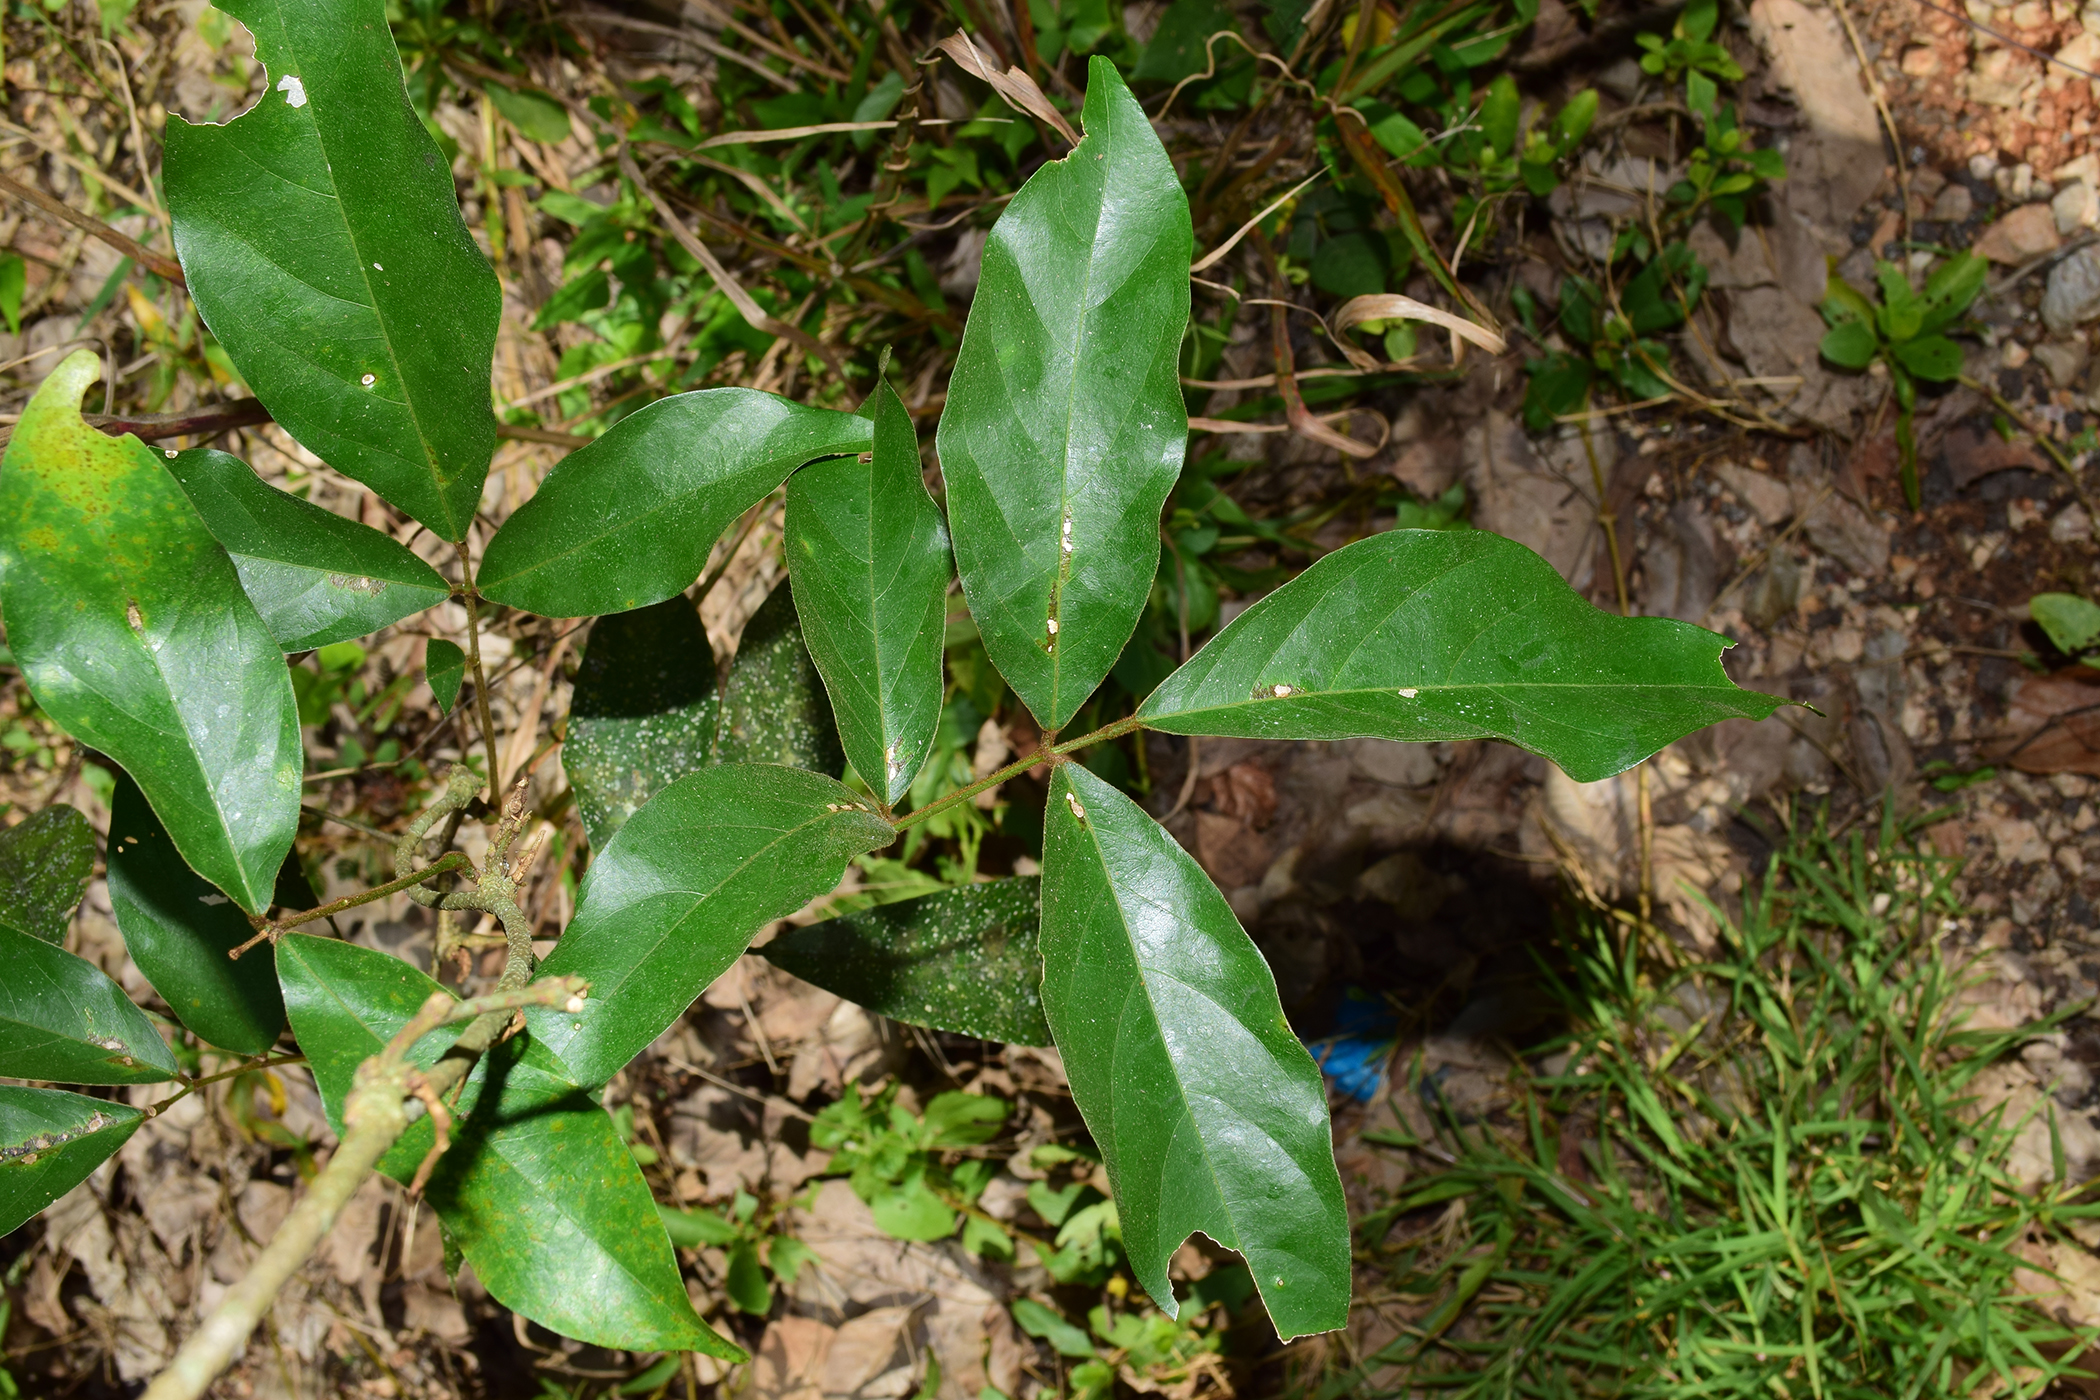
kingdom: Plantae
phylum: Tracheophyta
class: Magnoliopsida
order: Fabales
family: Fabaceae
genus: Derris
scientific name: Derris elegans
